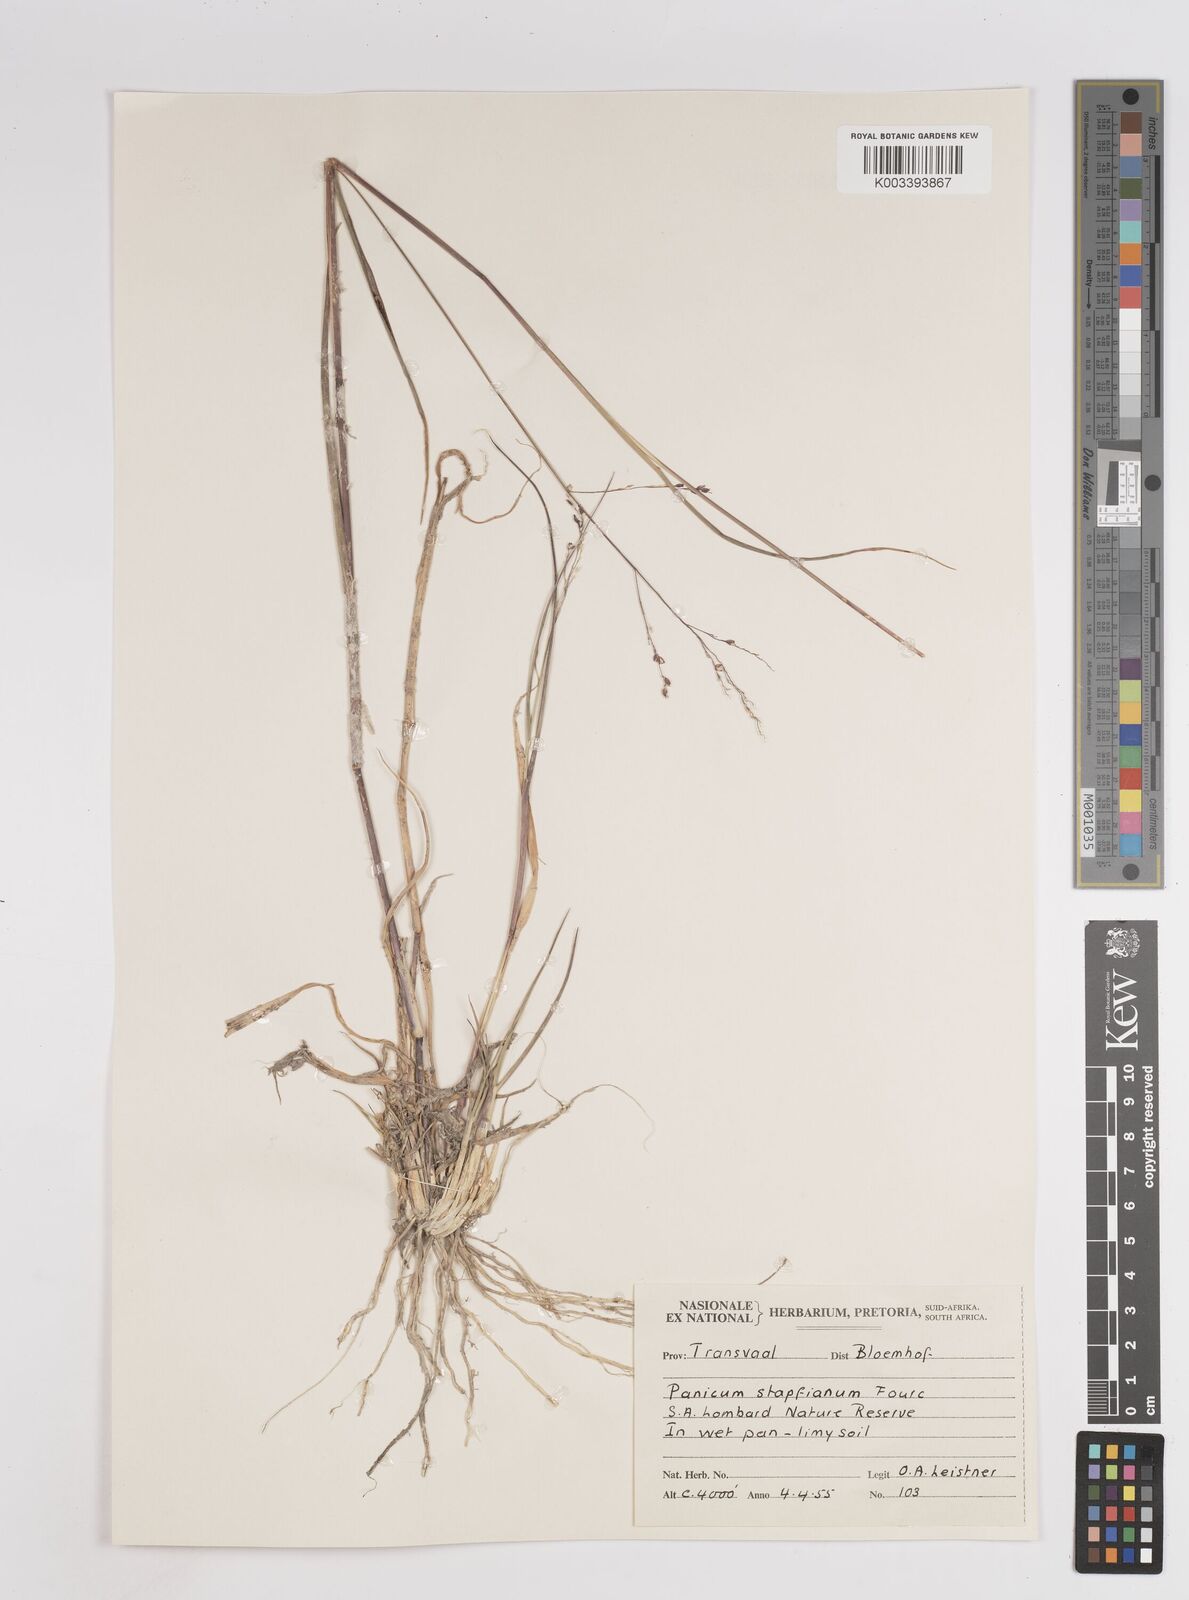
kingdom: Plantae
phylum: Tracheophyta
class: Liliopsida
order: Poales
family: Poaceae
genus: Panicum
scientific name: Panicum stapfianum
